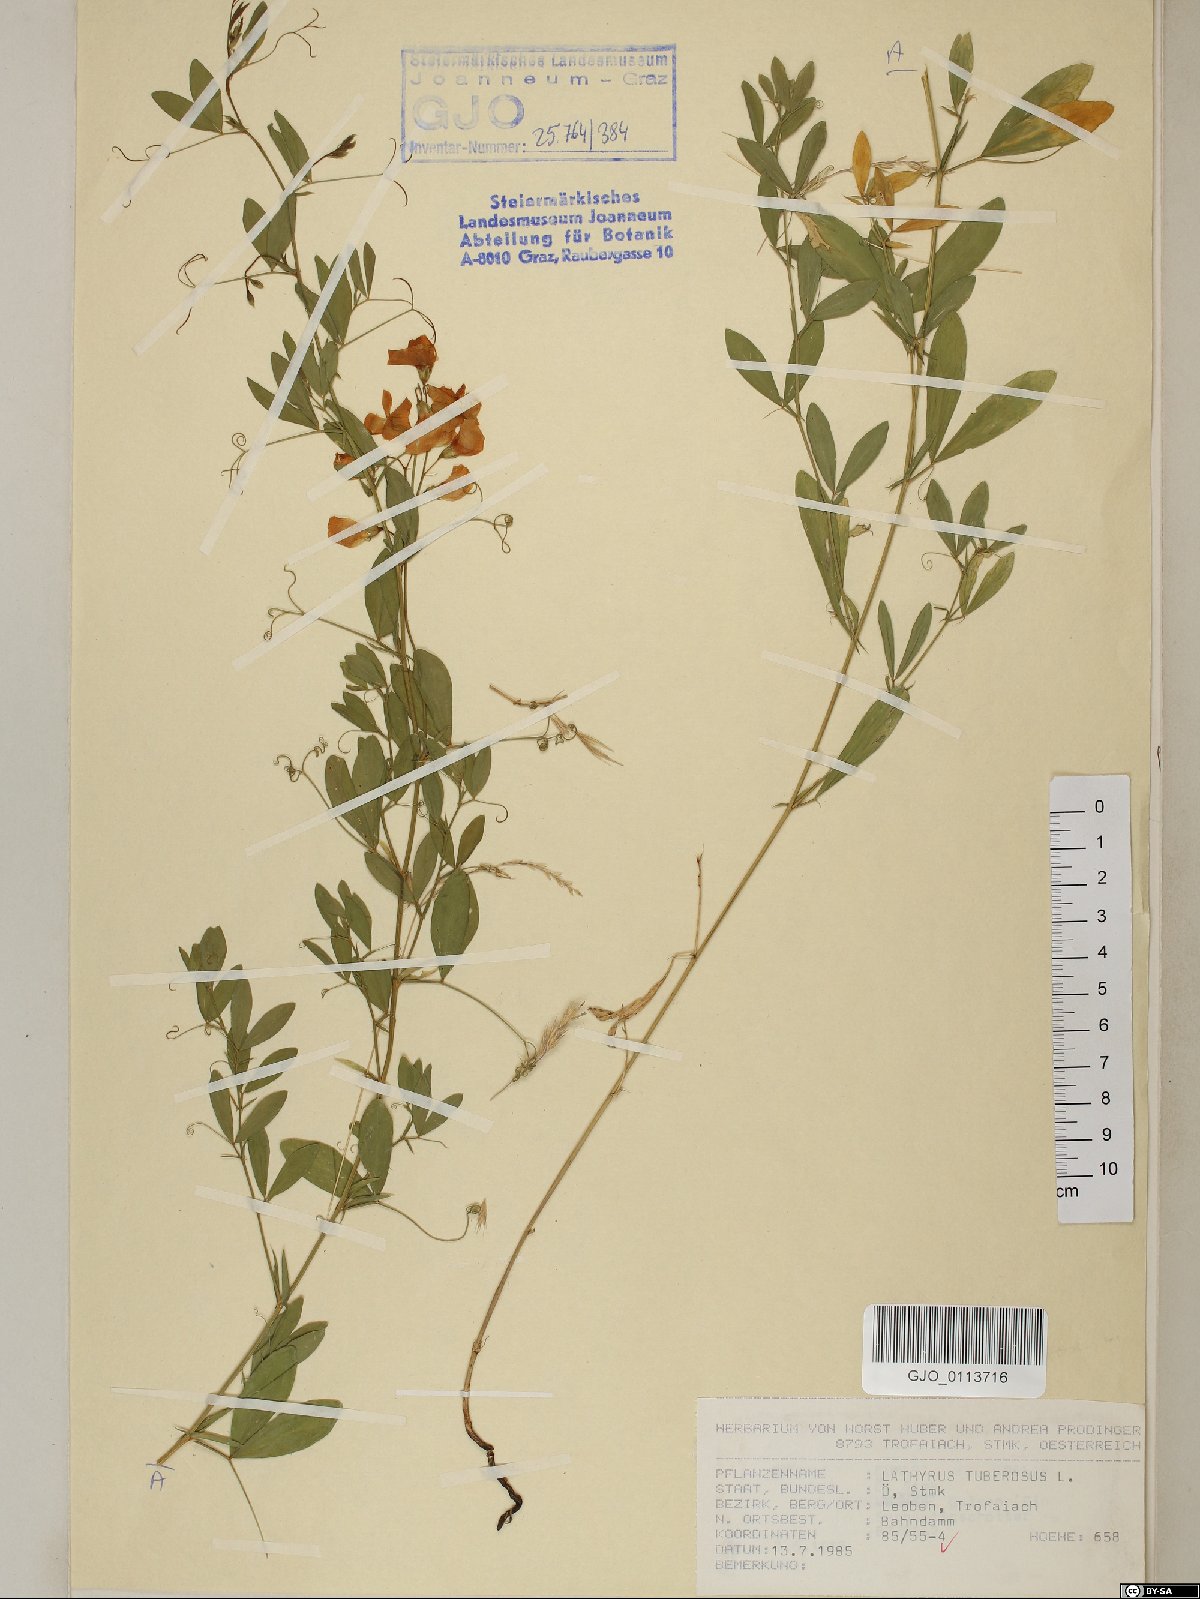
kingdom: Plantae
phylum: Tracheophyta
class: Magnoliopsida
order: Fabales
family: Fabaceae
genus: Lathyrus
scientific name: Lathyrus tuberosus
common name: Tuberous pea
